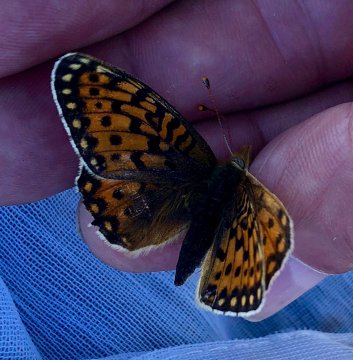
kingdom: Animalia
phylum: Arthropoda
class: Insecta
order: Lepidoptera
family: Nymphalidae
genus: Speyeria
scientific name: Speyeria mormonia
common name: Mormon Fritillary
